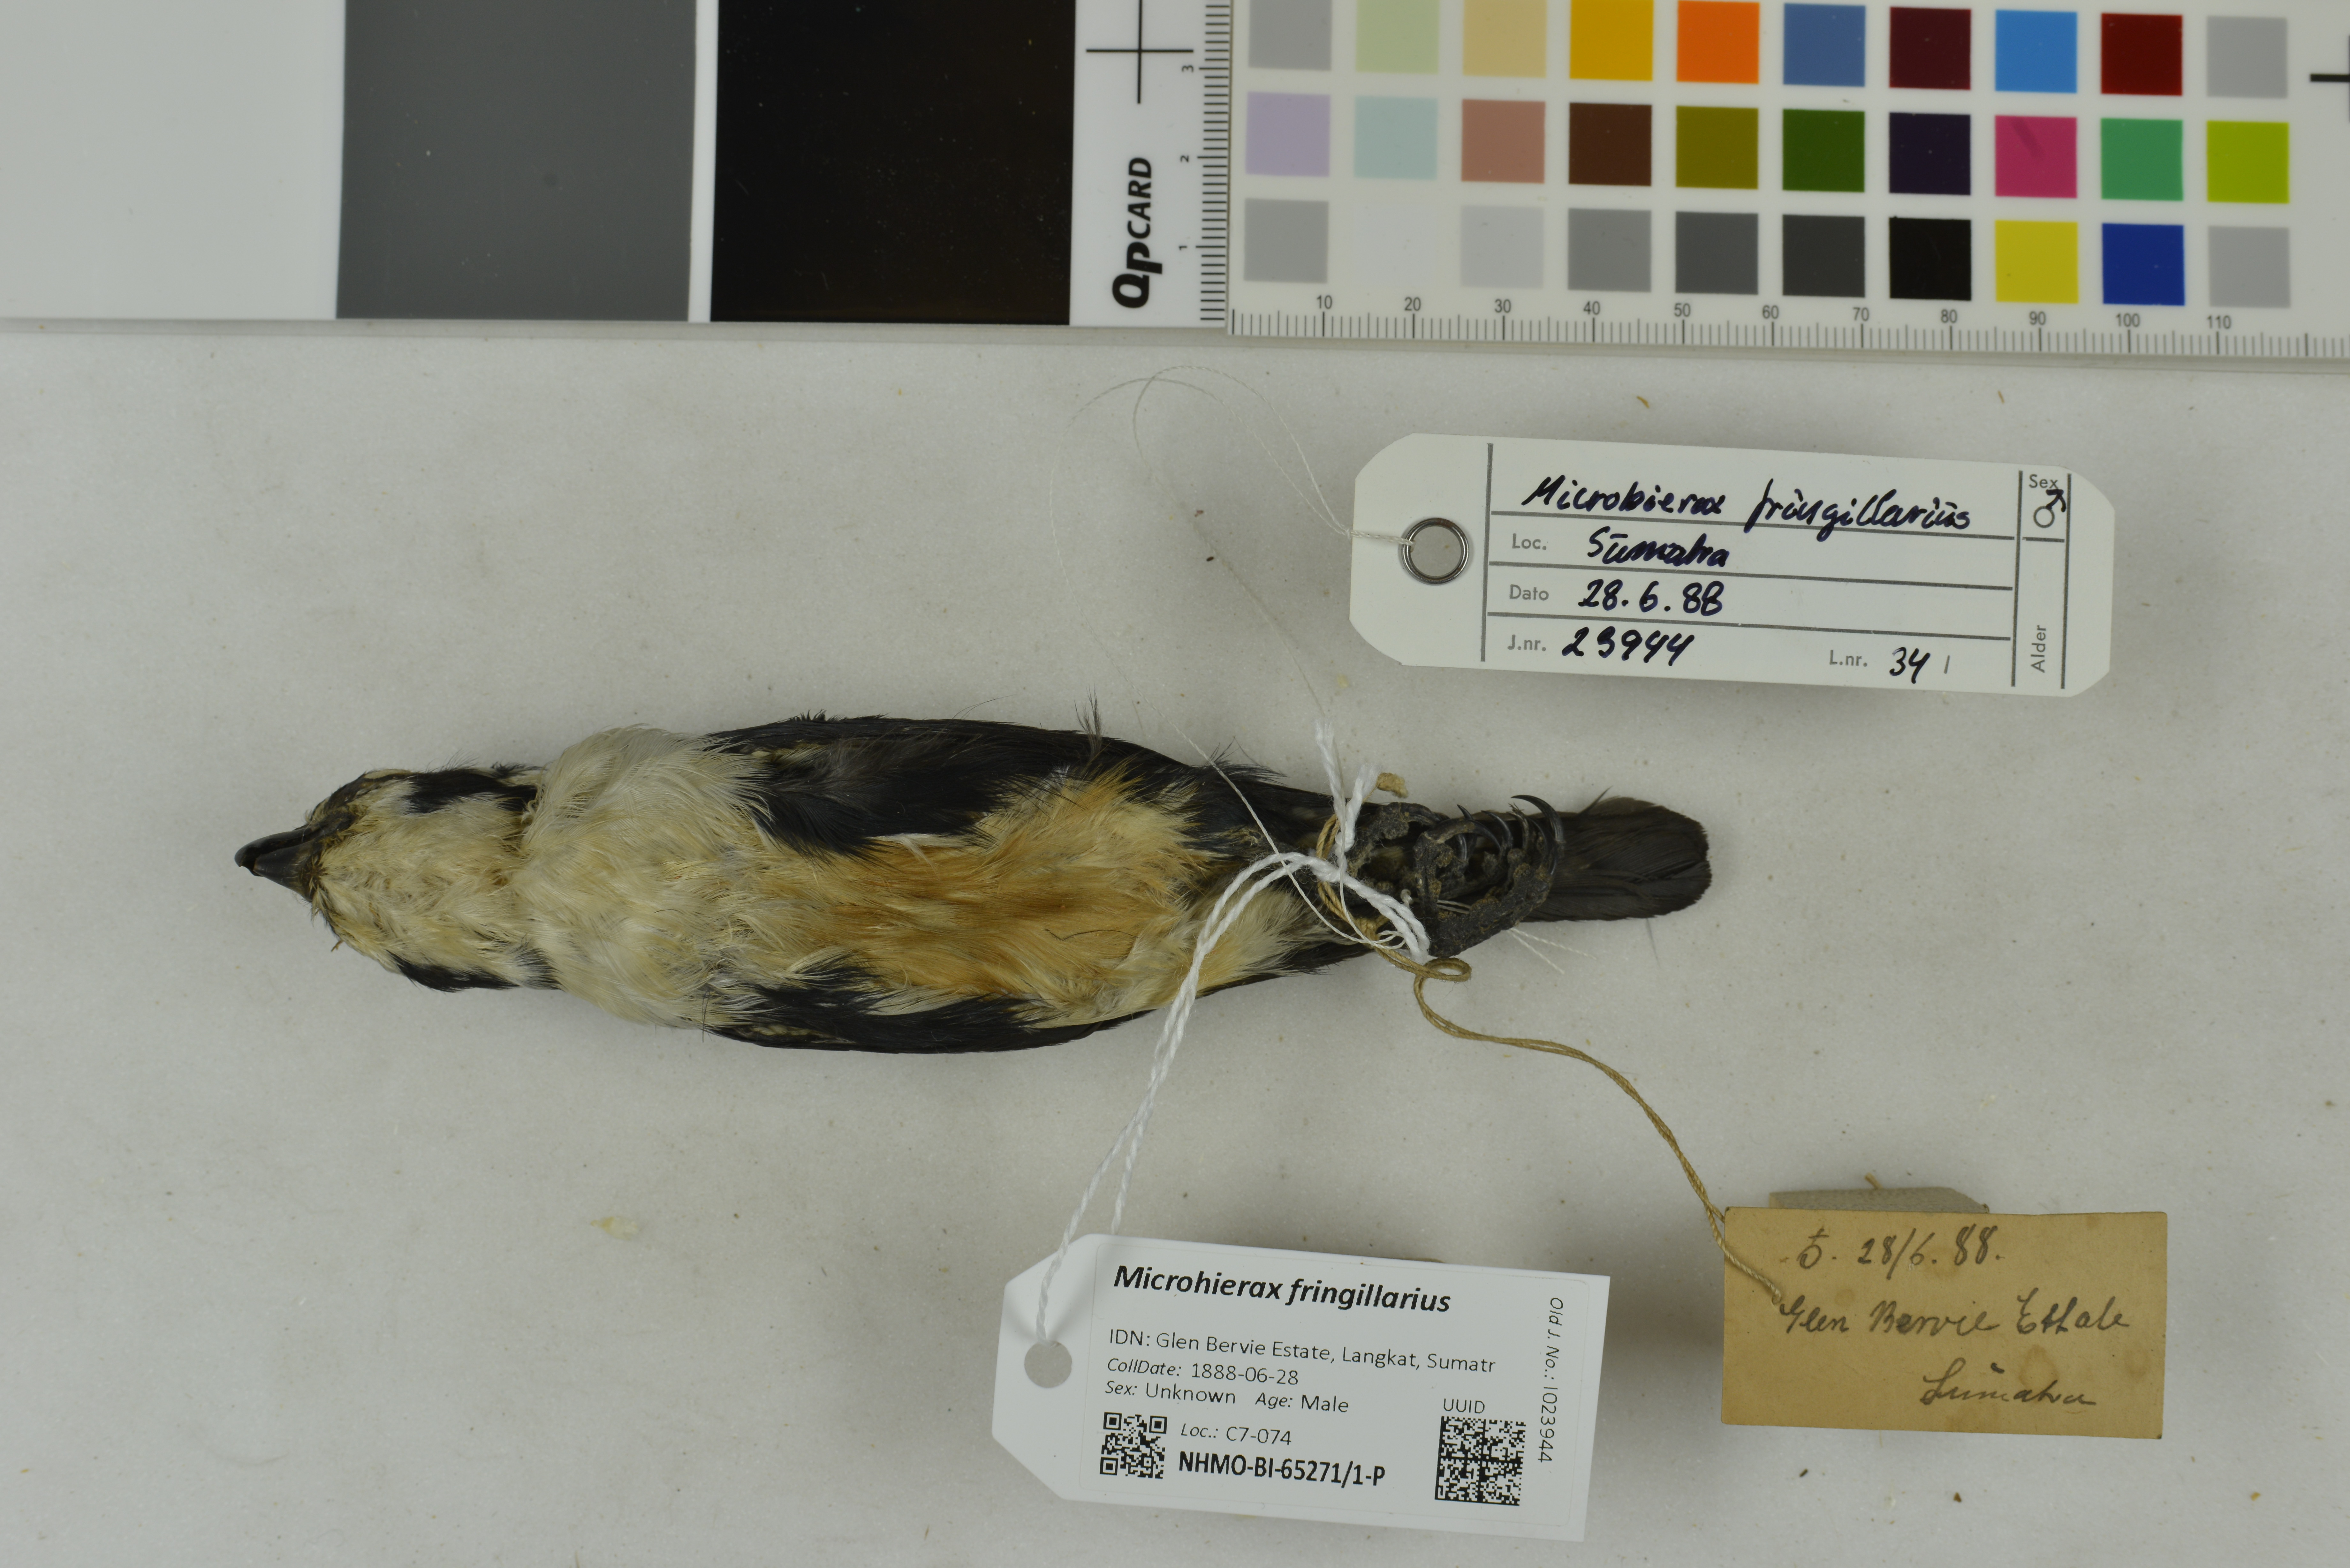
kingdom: Animalia
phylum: Chordata
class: Aves
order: Falconiformes
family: Falconidae
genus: Microhierax
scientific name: Microhierax fringillarius
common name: Black-thighed falconet
